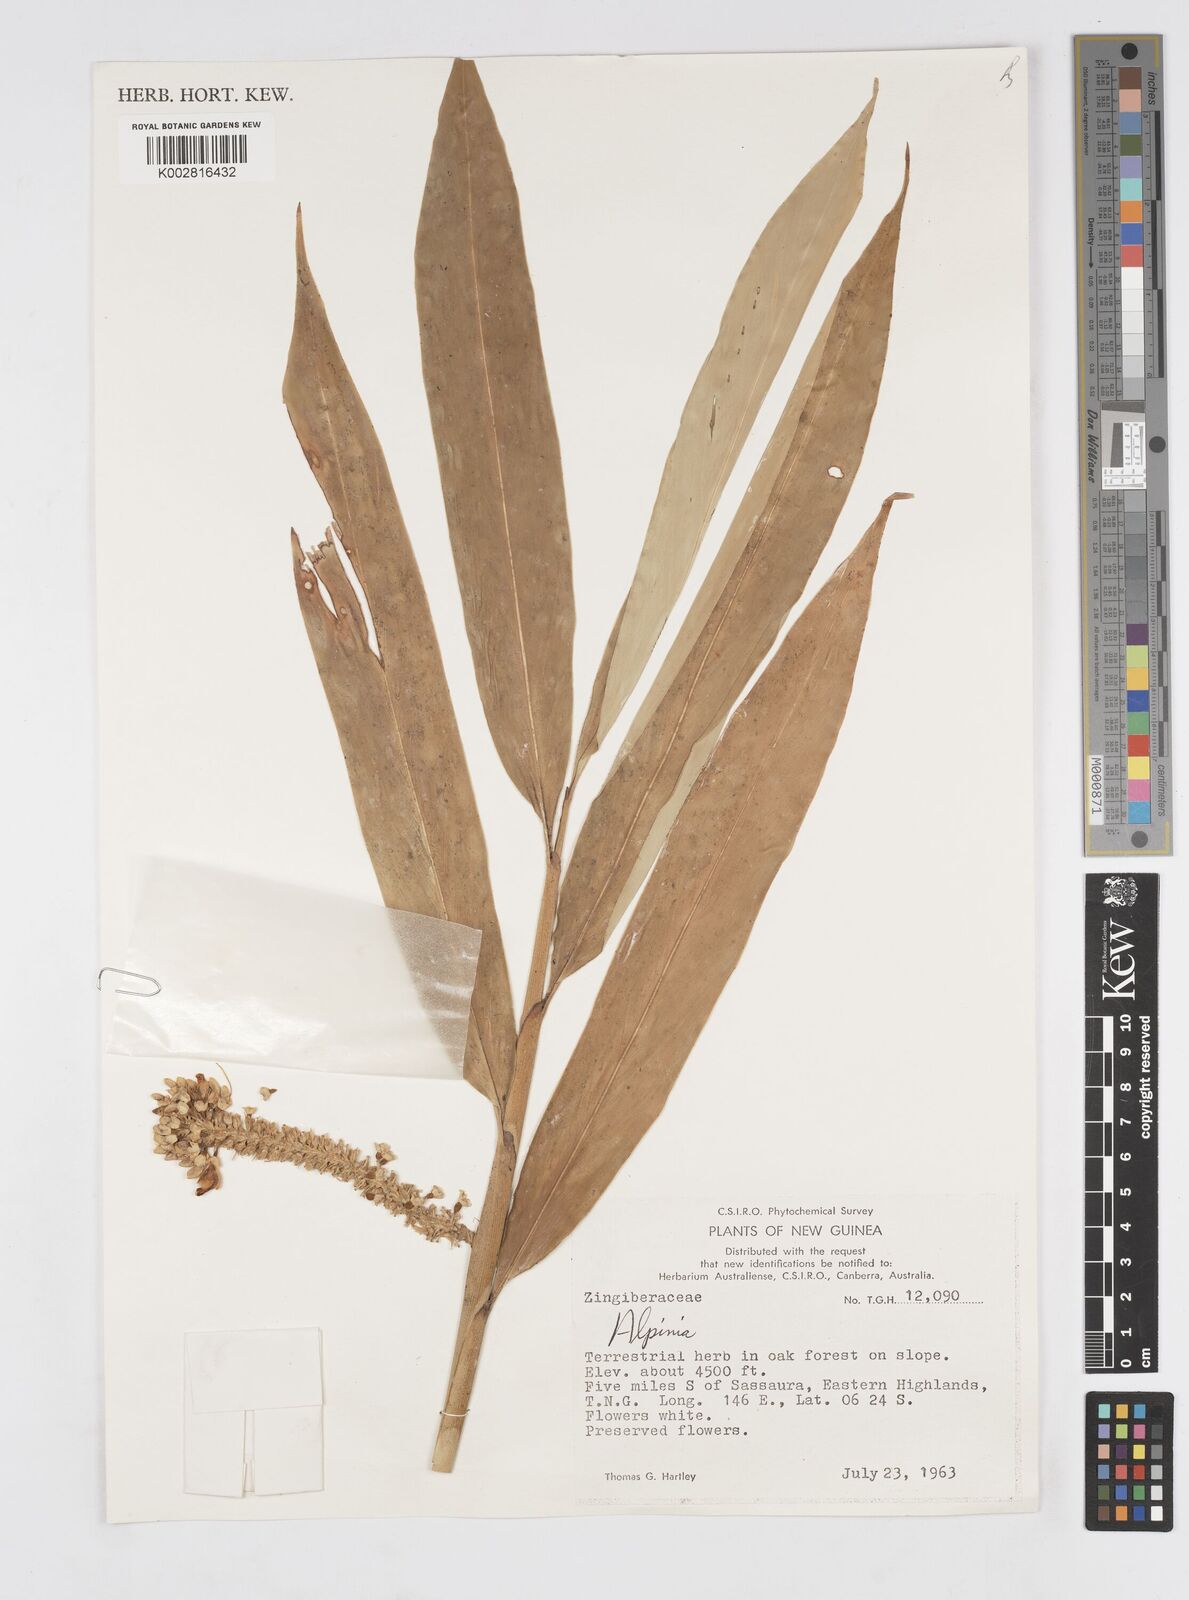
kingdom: Plantae
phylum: Tracheophyta
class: Liliopsida
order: Zingiberales
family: Zingiberaceae
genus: Alpinia
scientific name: Alpinia
